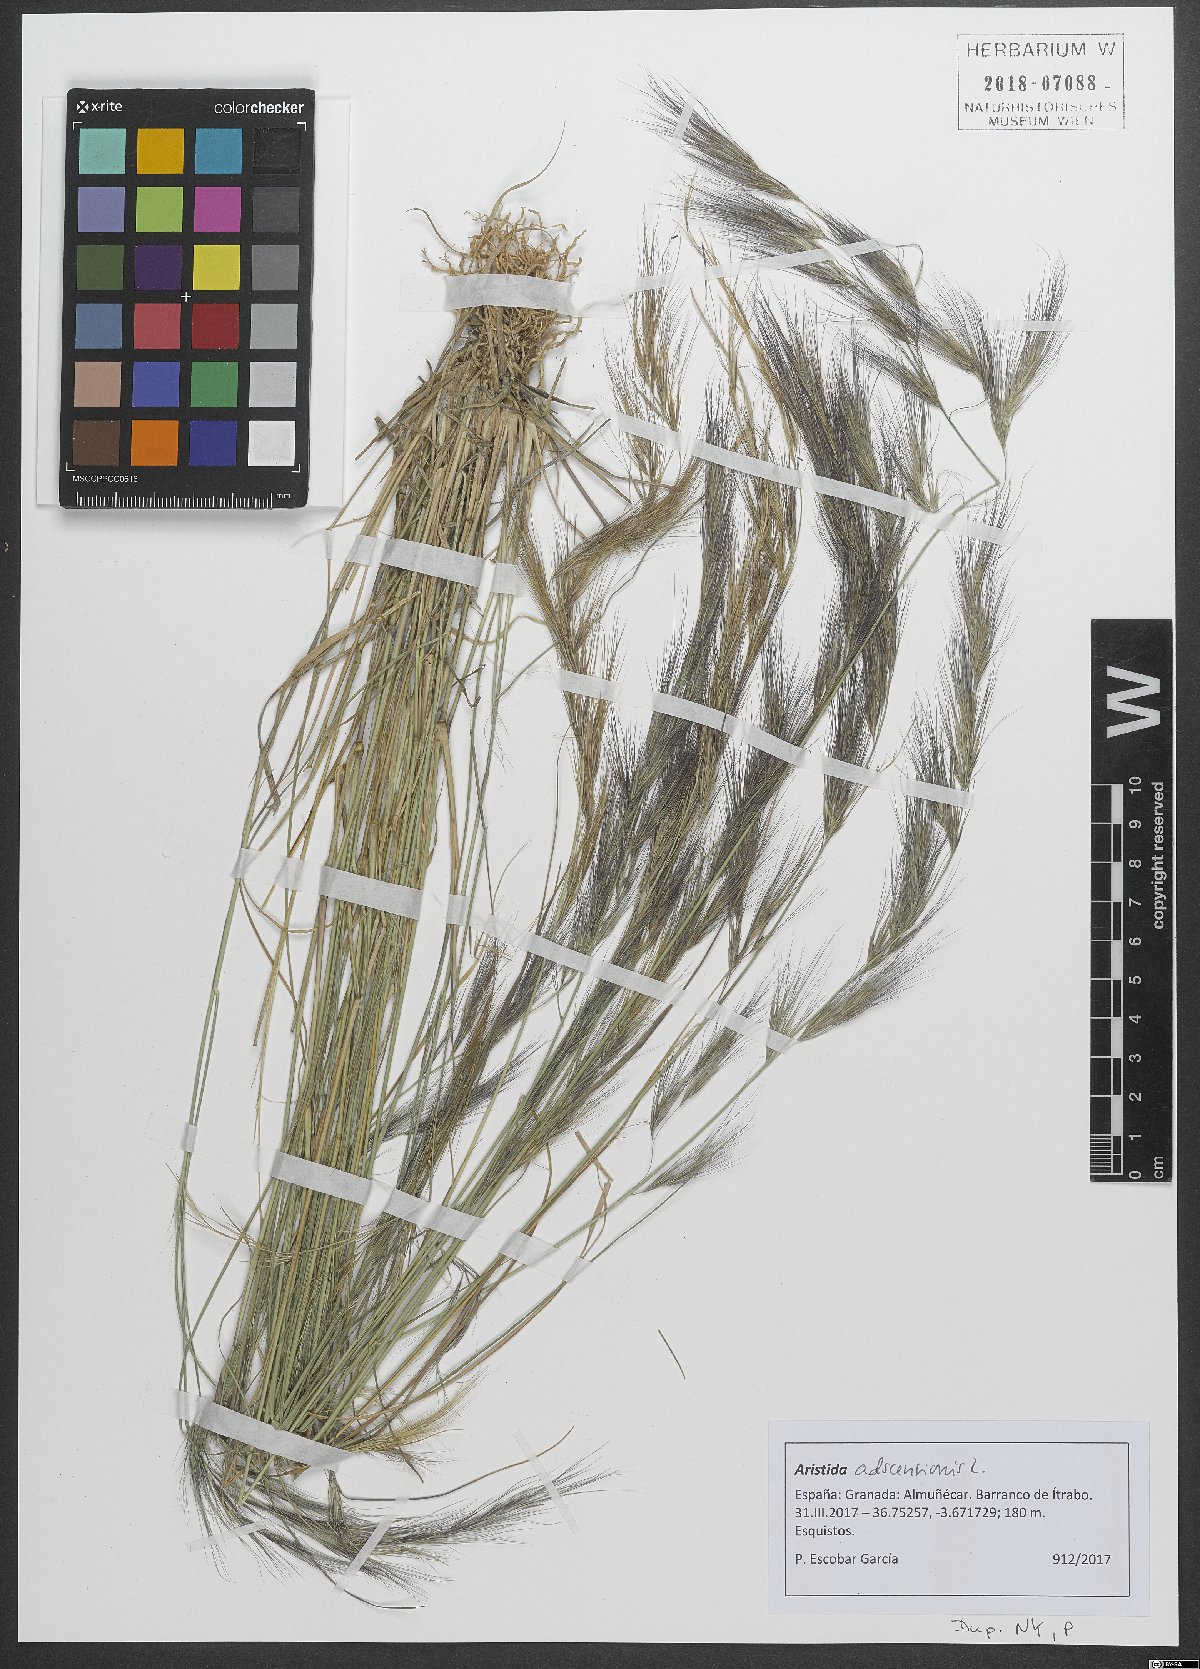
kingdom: Plantae
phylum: Tracheophyta
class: Liliopsida
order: Poales
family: Poaceae
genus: Aristida
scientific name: Aristida adscensionis
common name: Sixweeks threeawn
